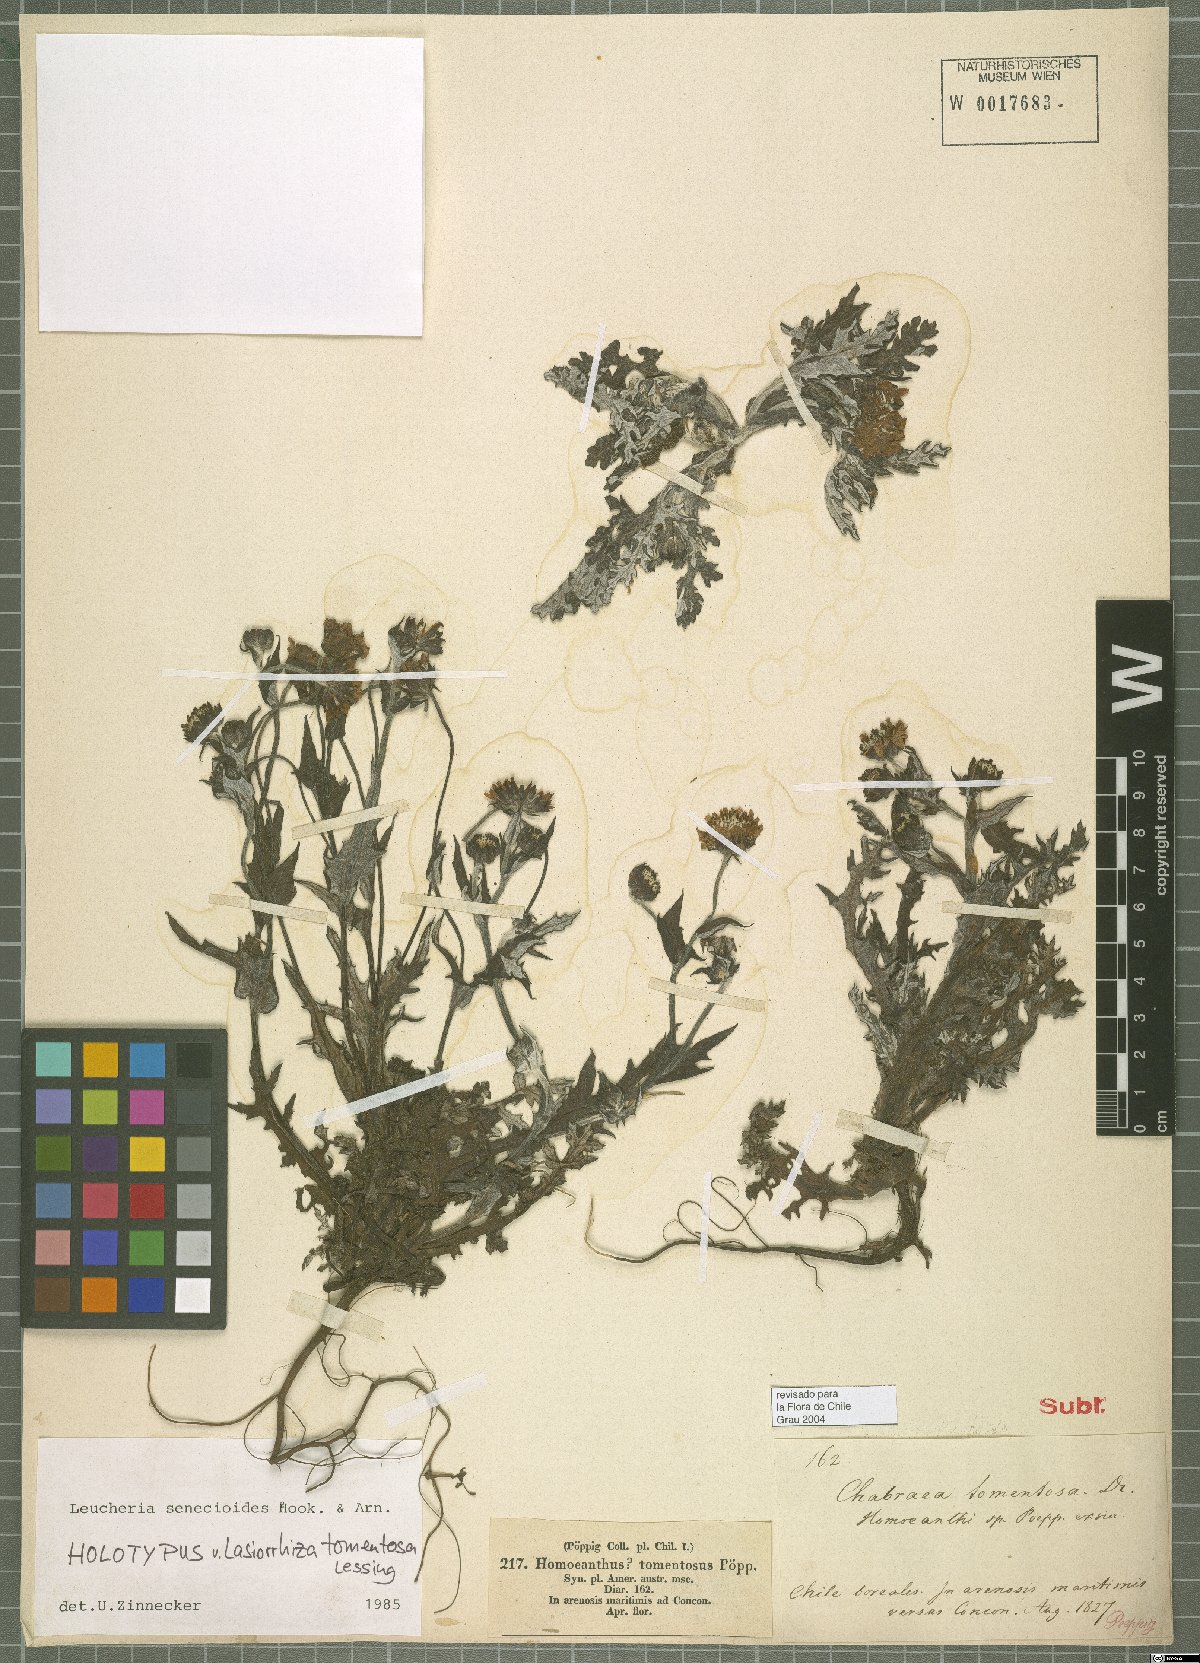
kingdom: Plantae
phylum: Tracheophyta
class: Magnoliopsida
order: Asterales
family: Asteraceae
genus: Leucheria
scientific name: Leucheria senecioides
